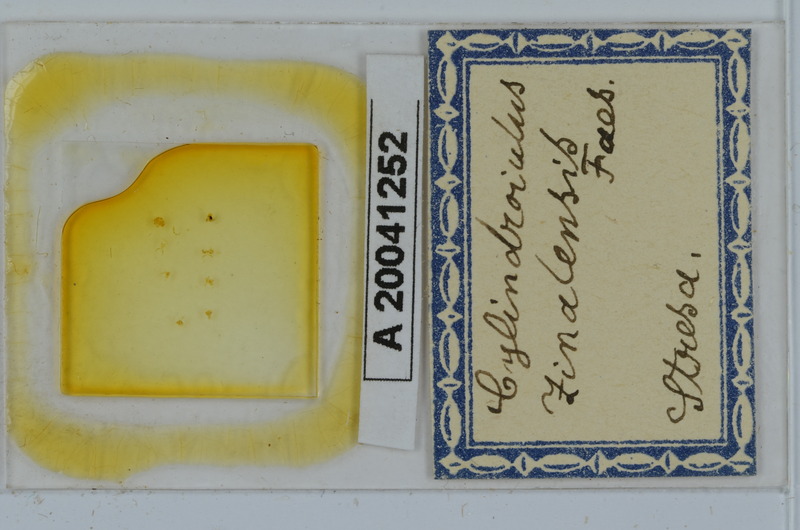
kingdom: Animalia
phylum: Arthropoda
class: Diplopoda
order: Julida
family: Julidae
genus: Cylindroiulus
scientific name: Cylindroiulus zinalensis
